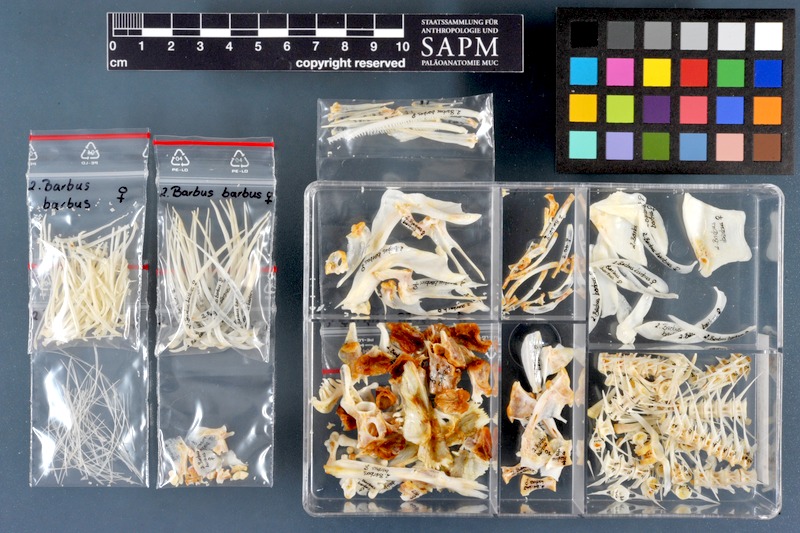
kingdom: Animalia
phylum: Chordata
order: Cypriniformes
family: Cyprinidae
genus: Barbus
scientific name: Barbus barbus
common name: Barbel
